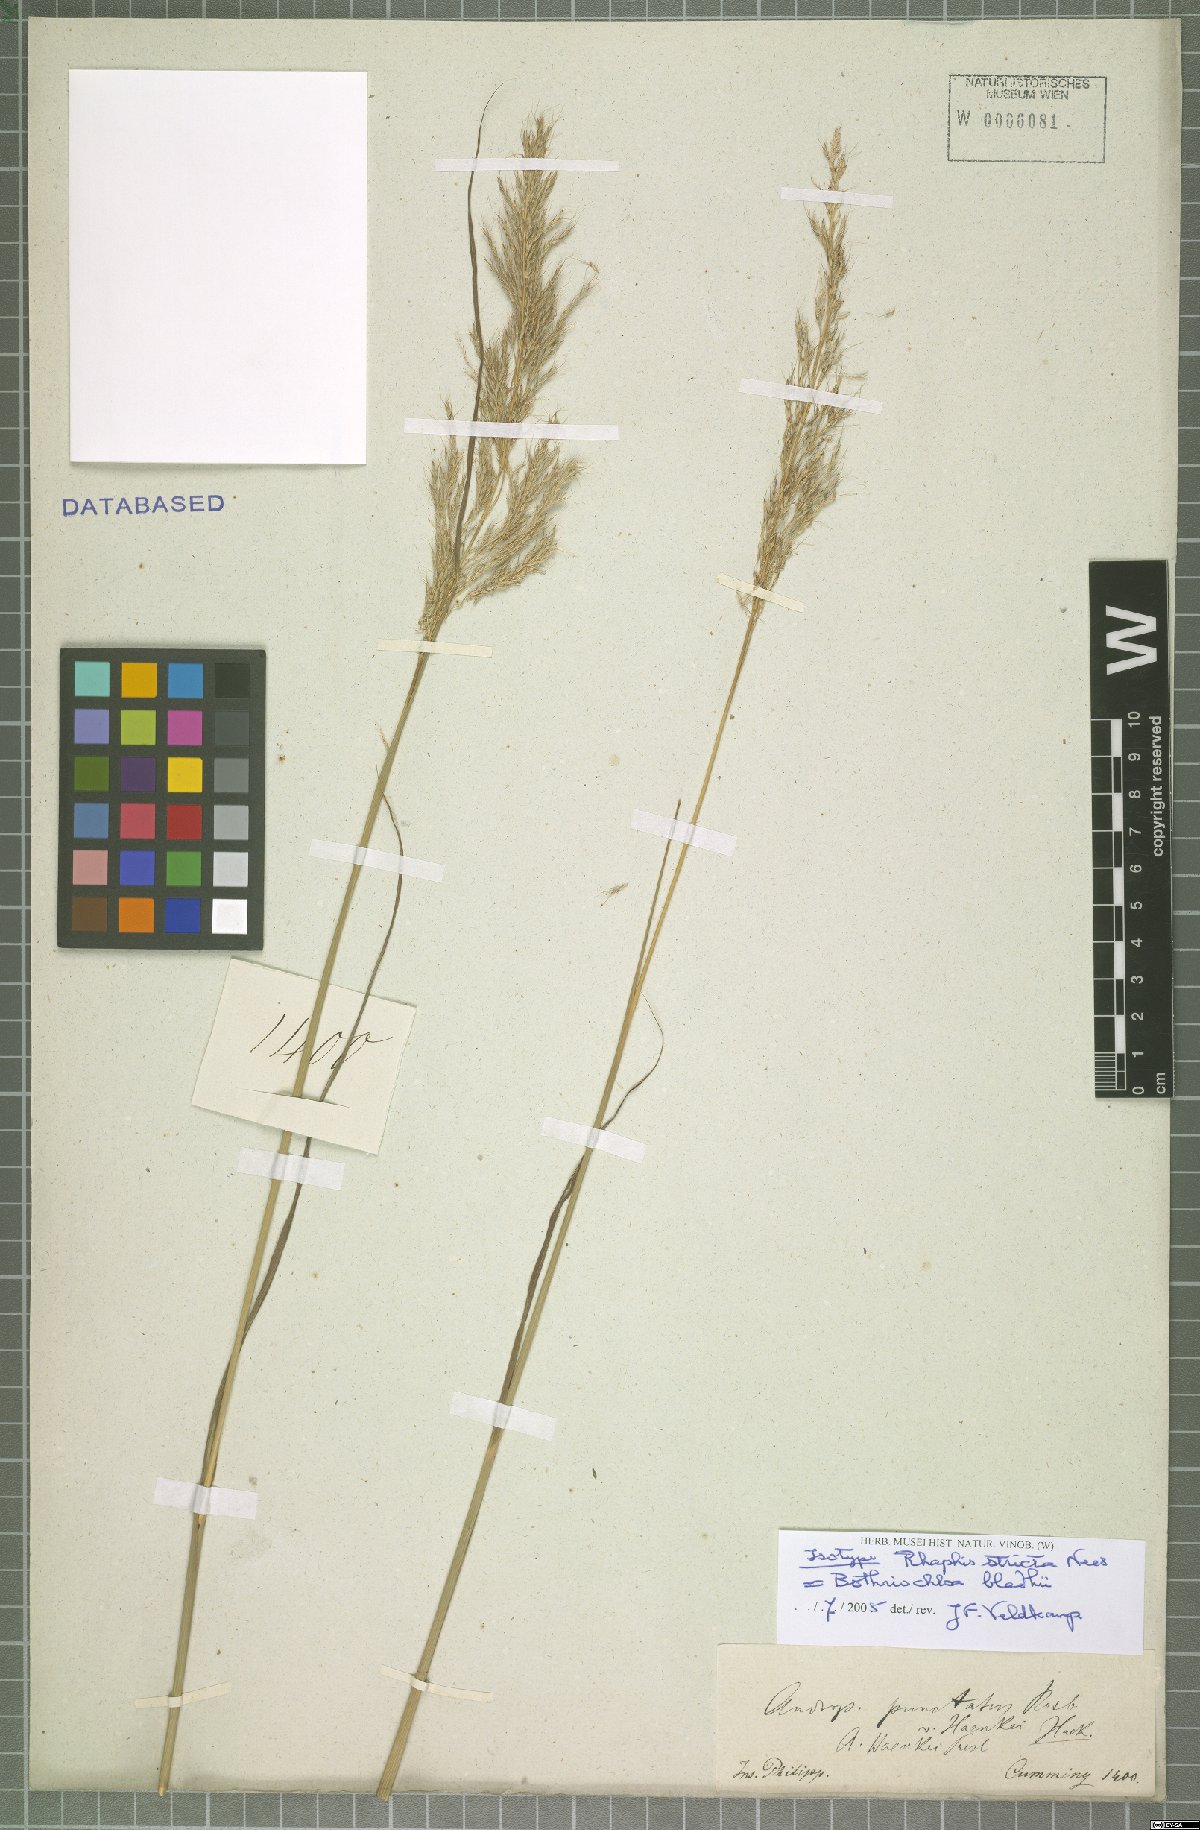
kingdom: Plantae
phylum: Tracheophyta
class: Liliopsida
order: Poales
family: Poaceae
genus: Bothriochloa
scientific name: Bothriochloa bladhii
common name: Caucasian bluestem
